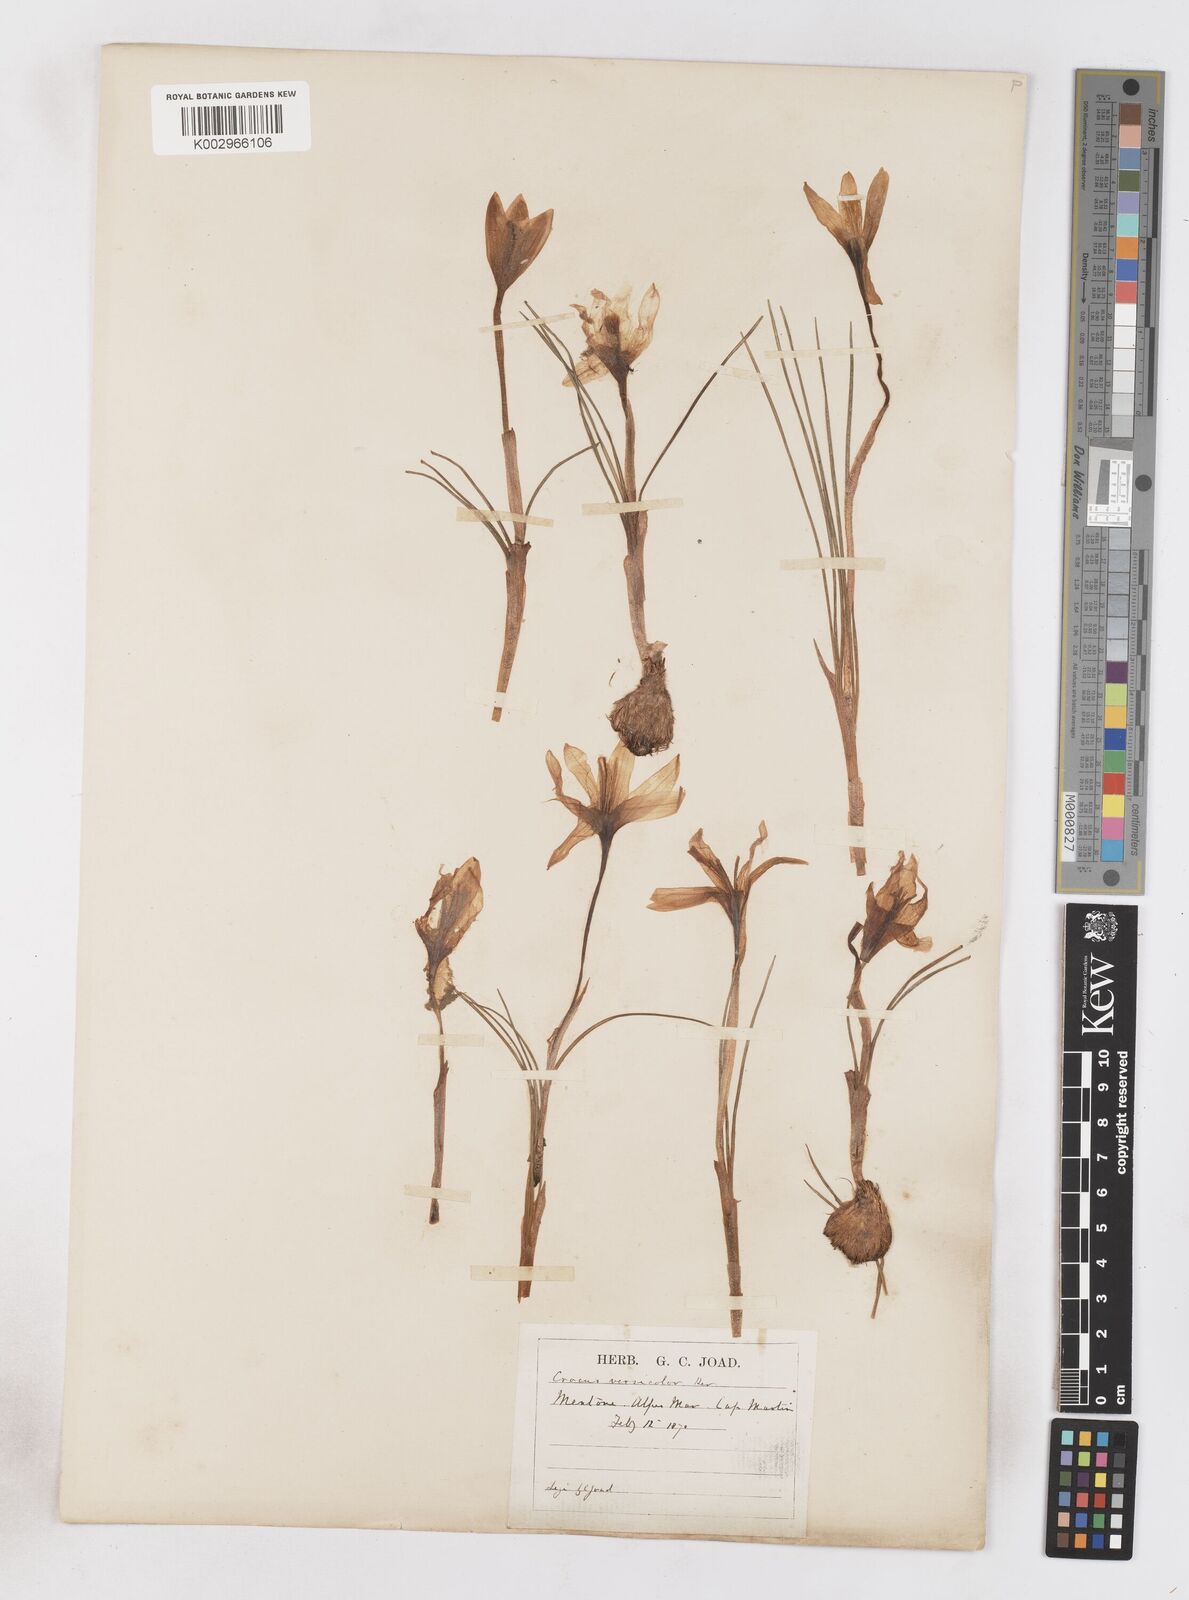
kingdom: Plantae
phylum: Tracheophyta
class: Liliopsida
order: Asparagales
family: Iridaceae
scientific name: Iridaceae
